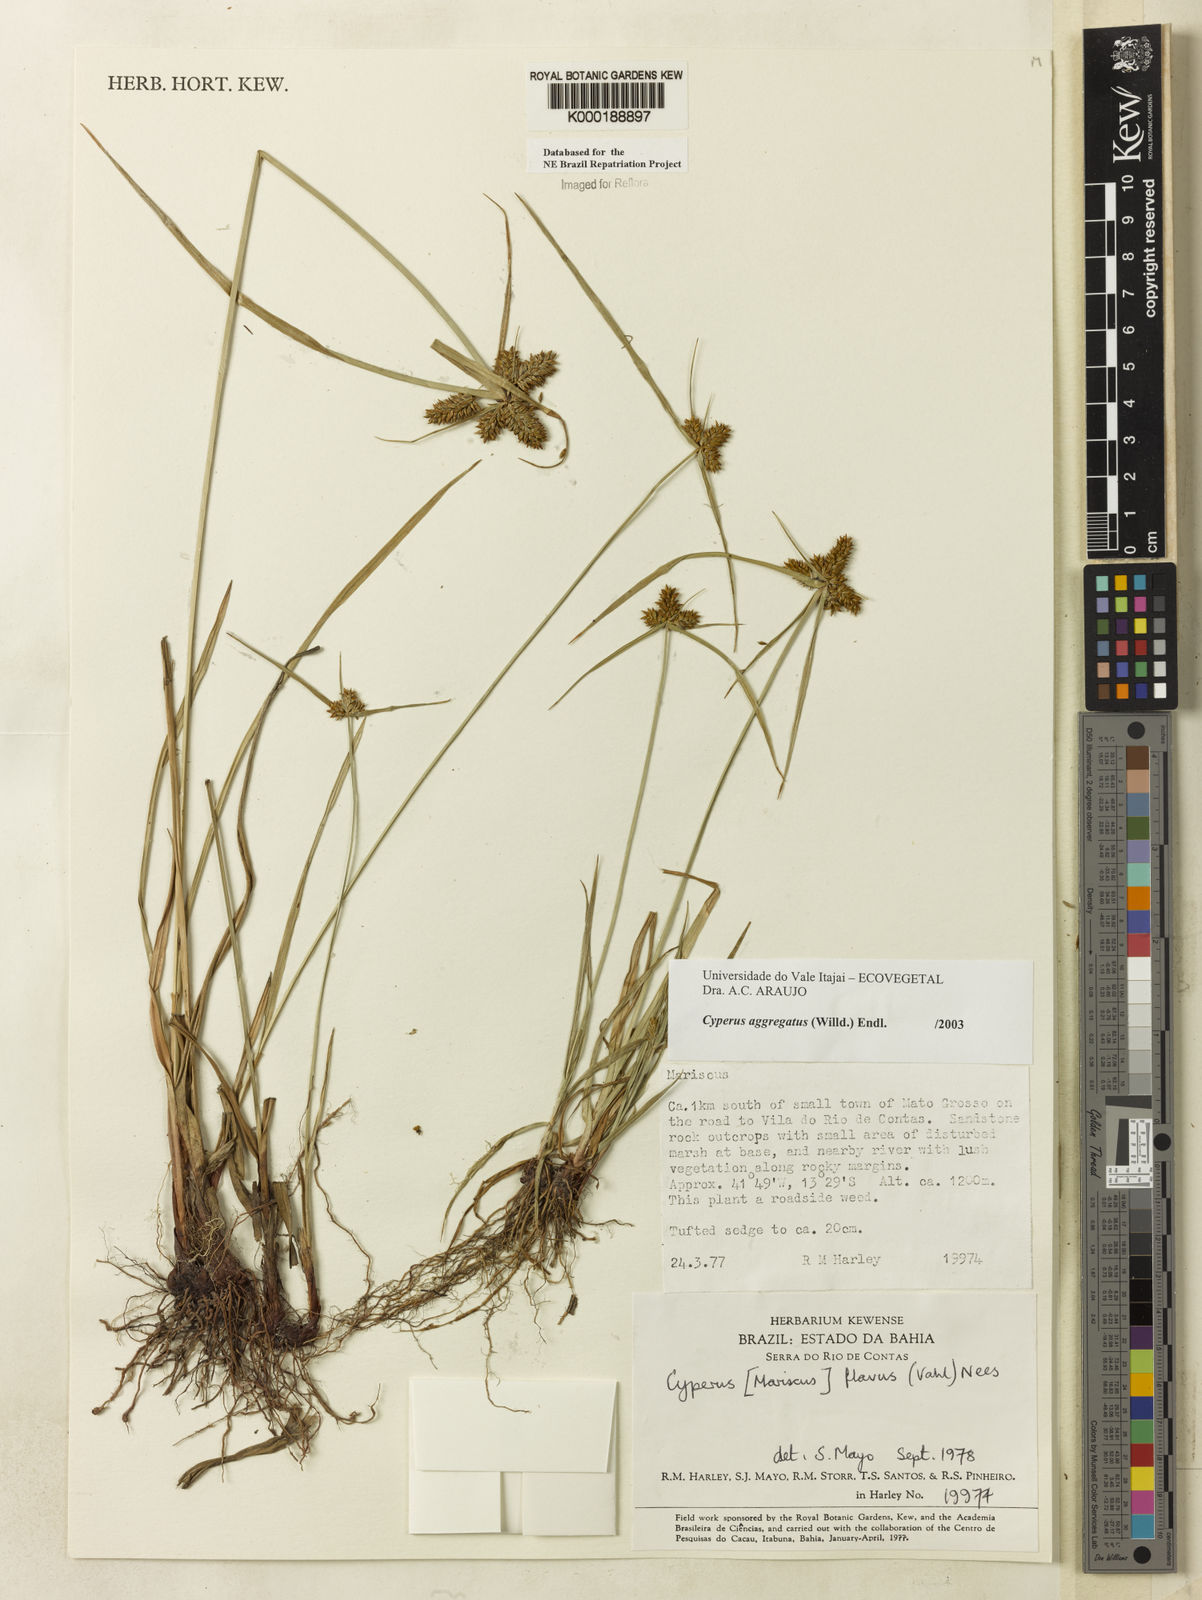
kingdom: Plantae
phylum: Tracheophyta
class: Liliopsida
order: Poales
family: Cyperaceae
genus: Cyperus
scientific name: Cyperus aggregatus
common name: Inflatedscale flatsedge
